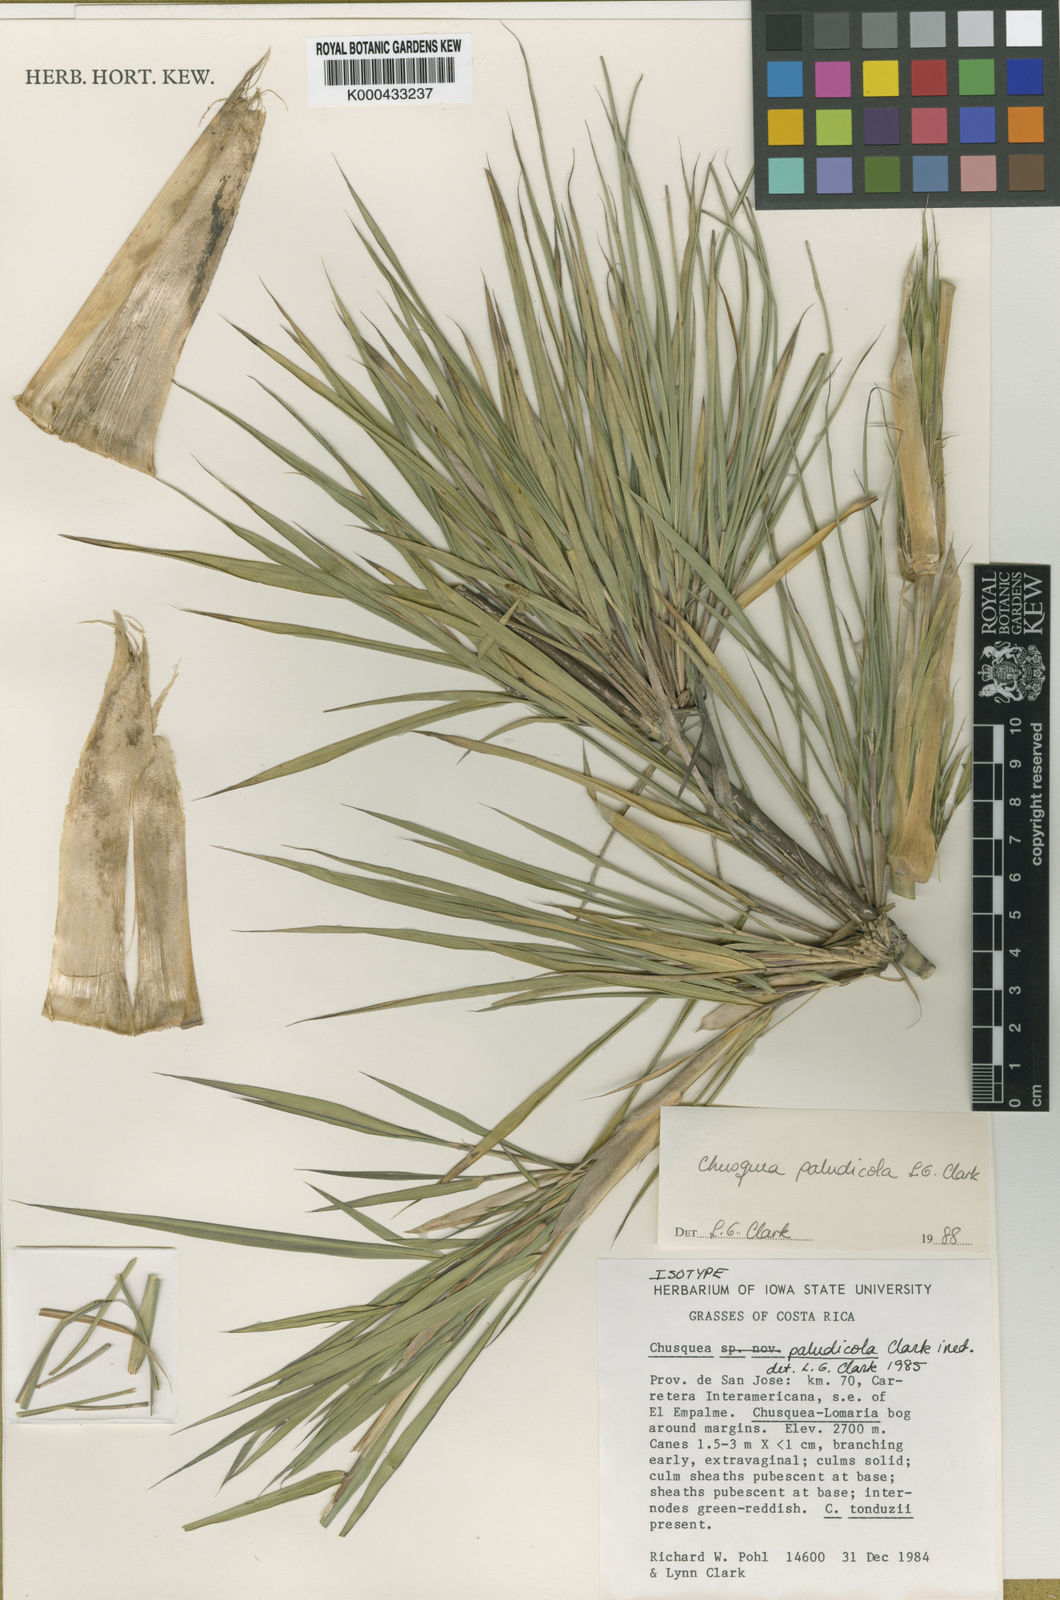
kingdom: Plantae
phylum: Tracheophyta
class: Liliopsida
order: Poales
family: Poaceae
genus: Chusquea
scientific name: Chusquea paludicola
